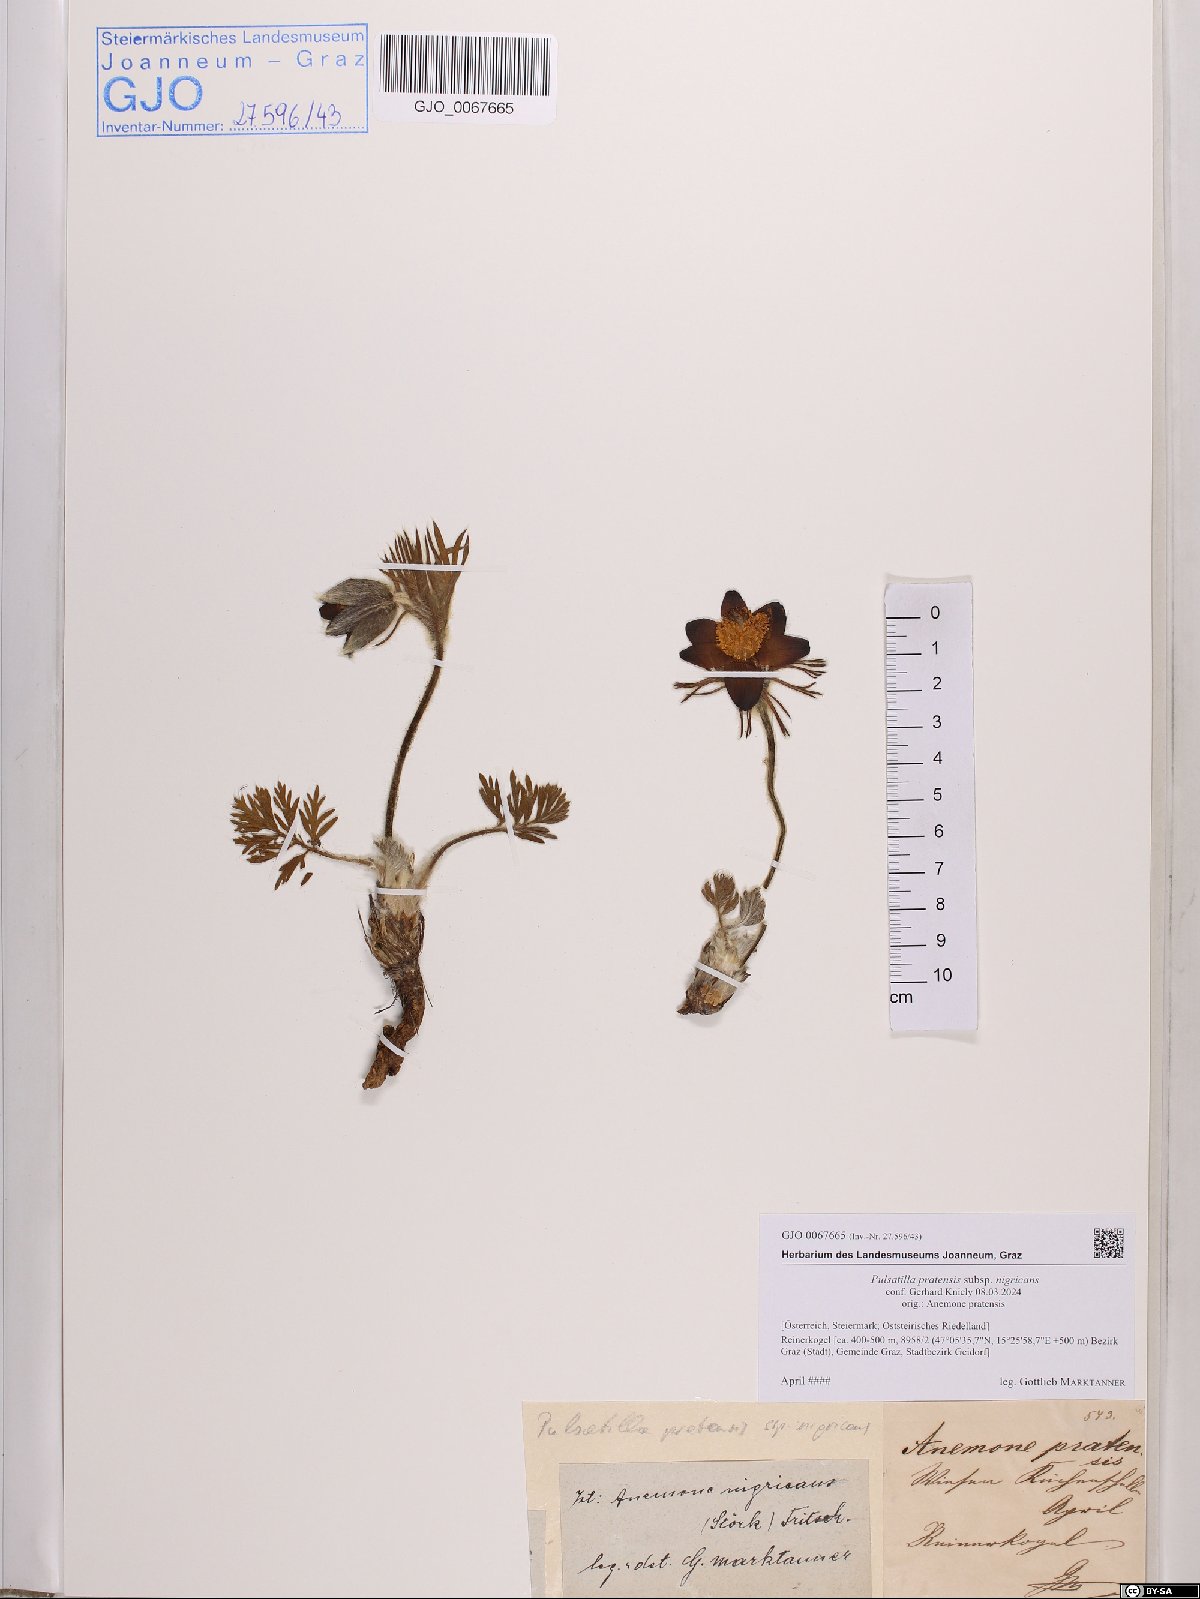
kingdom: Plantae
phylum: Tracheophyta
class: Magnoliopsida
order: Ranunculales
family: Ranunculaceae
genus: Pulsatilla
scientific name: Pulsatilla pratensis
